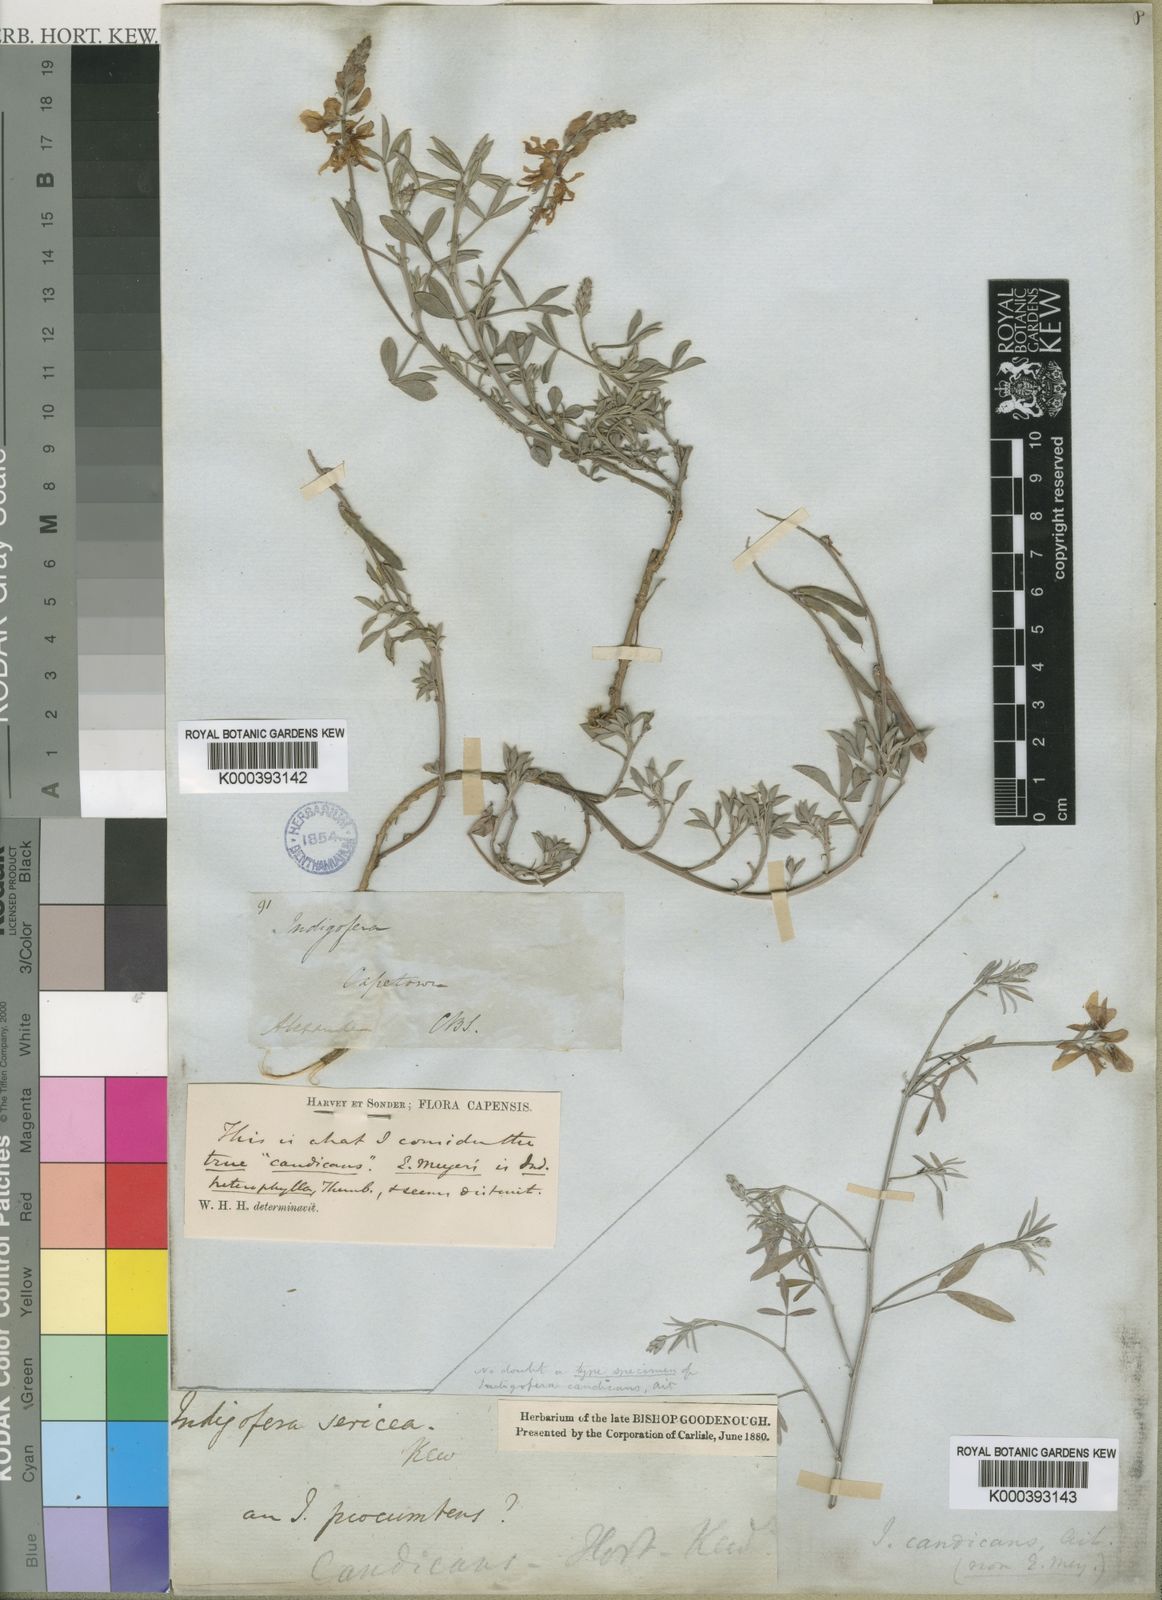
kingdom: Plantae
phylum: Tracheophyta
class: Magnoliopsida
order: Fabales
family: Fabaceae
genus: Indigofera
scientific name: Indigofera candicans
